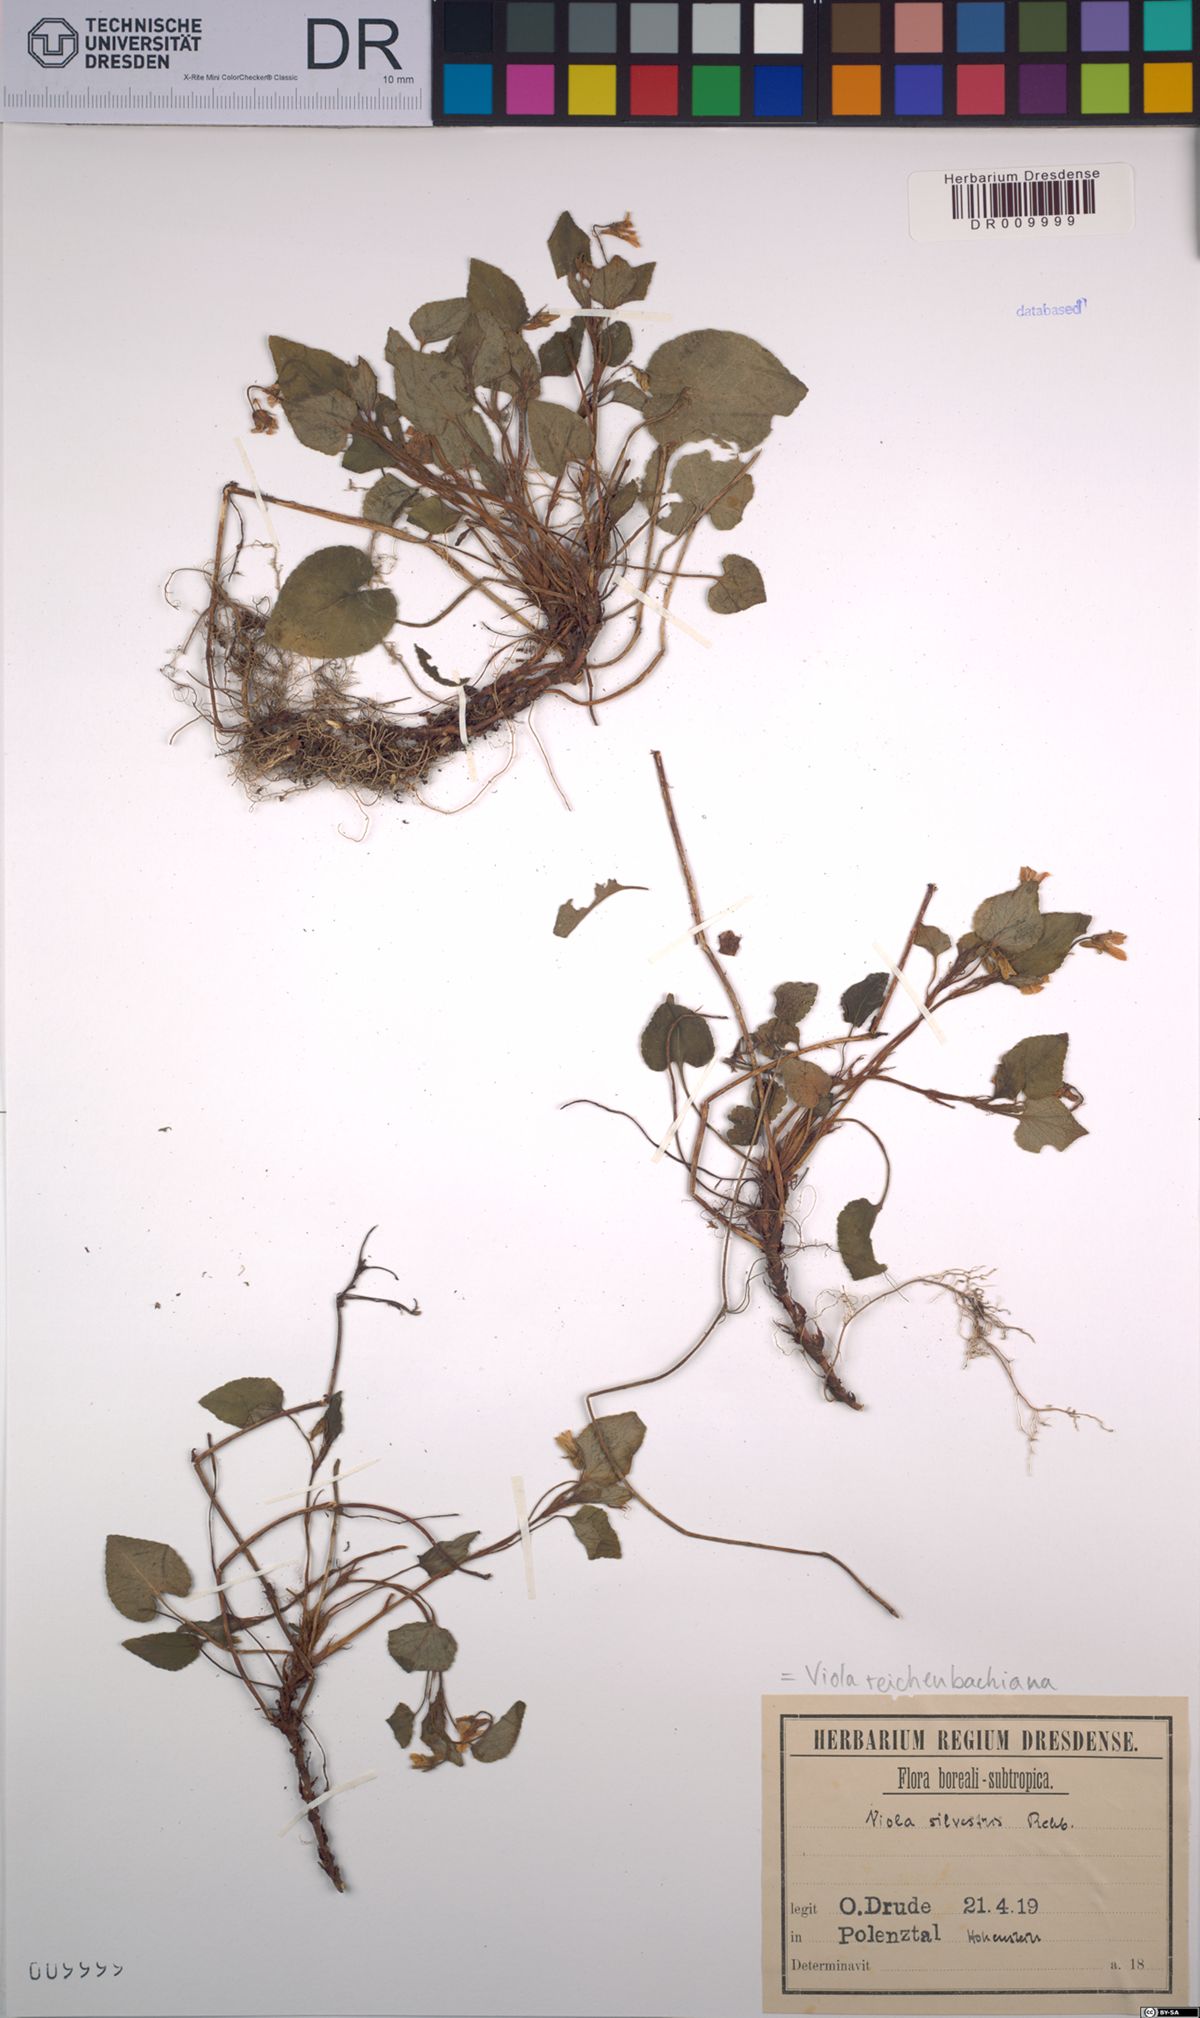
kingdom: Plantae
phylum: Tracheophyta
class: Magnoliopsida
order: Malpighiales
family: Violaceae
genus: Viola
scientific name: Viola reichenbachiana
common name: Early dog-violet
